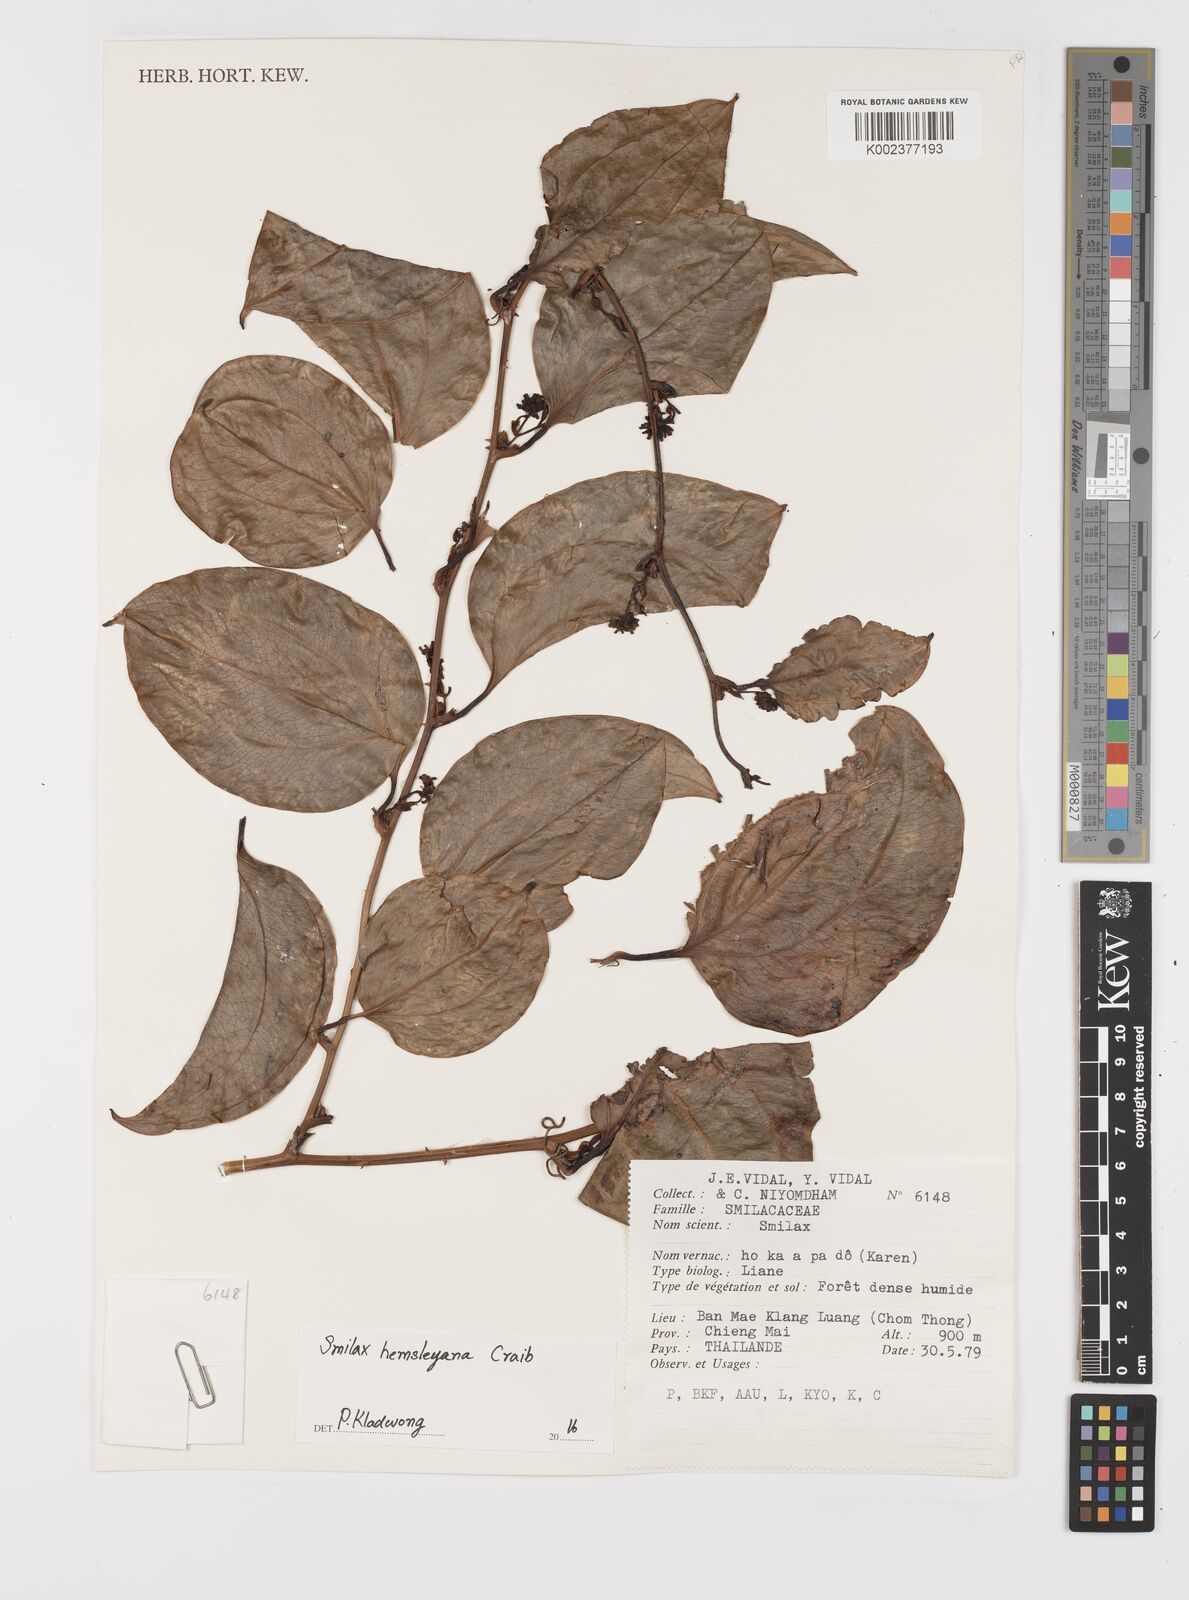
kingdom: Plantae
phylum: Tracheophyta
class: Liliopsida
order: Liliales
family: Smilacaceae
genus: Smilax
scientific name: Smilax hemsleyana
